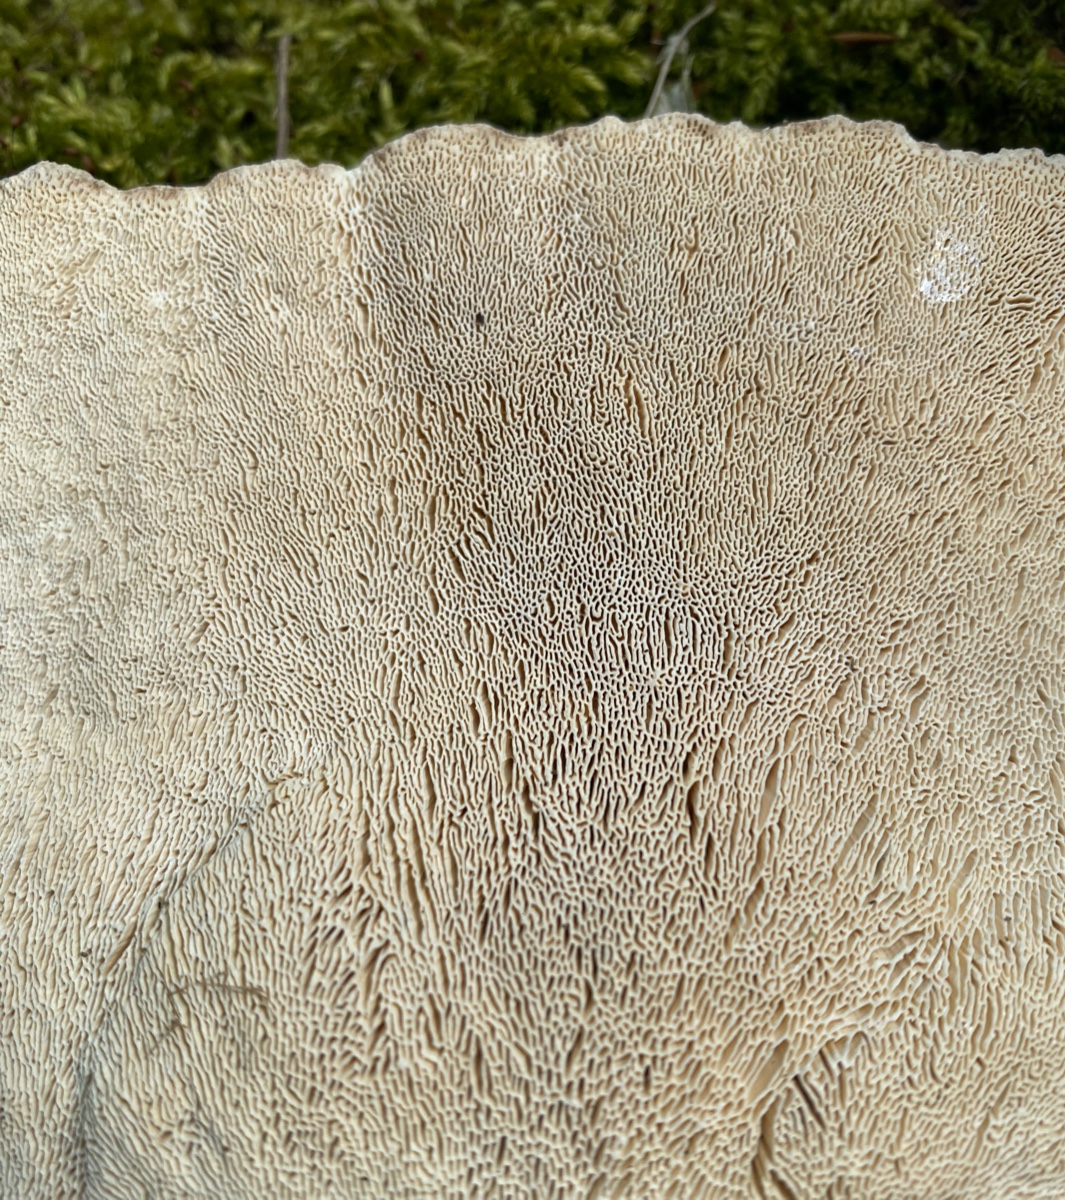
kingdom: Fungi
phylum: Basidiomycota
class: Agaricomycetes
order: Polyporales
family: Polyporaceae
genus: Trametes
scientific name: Trametes gibbosa
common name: puklet læderporesvamp
